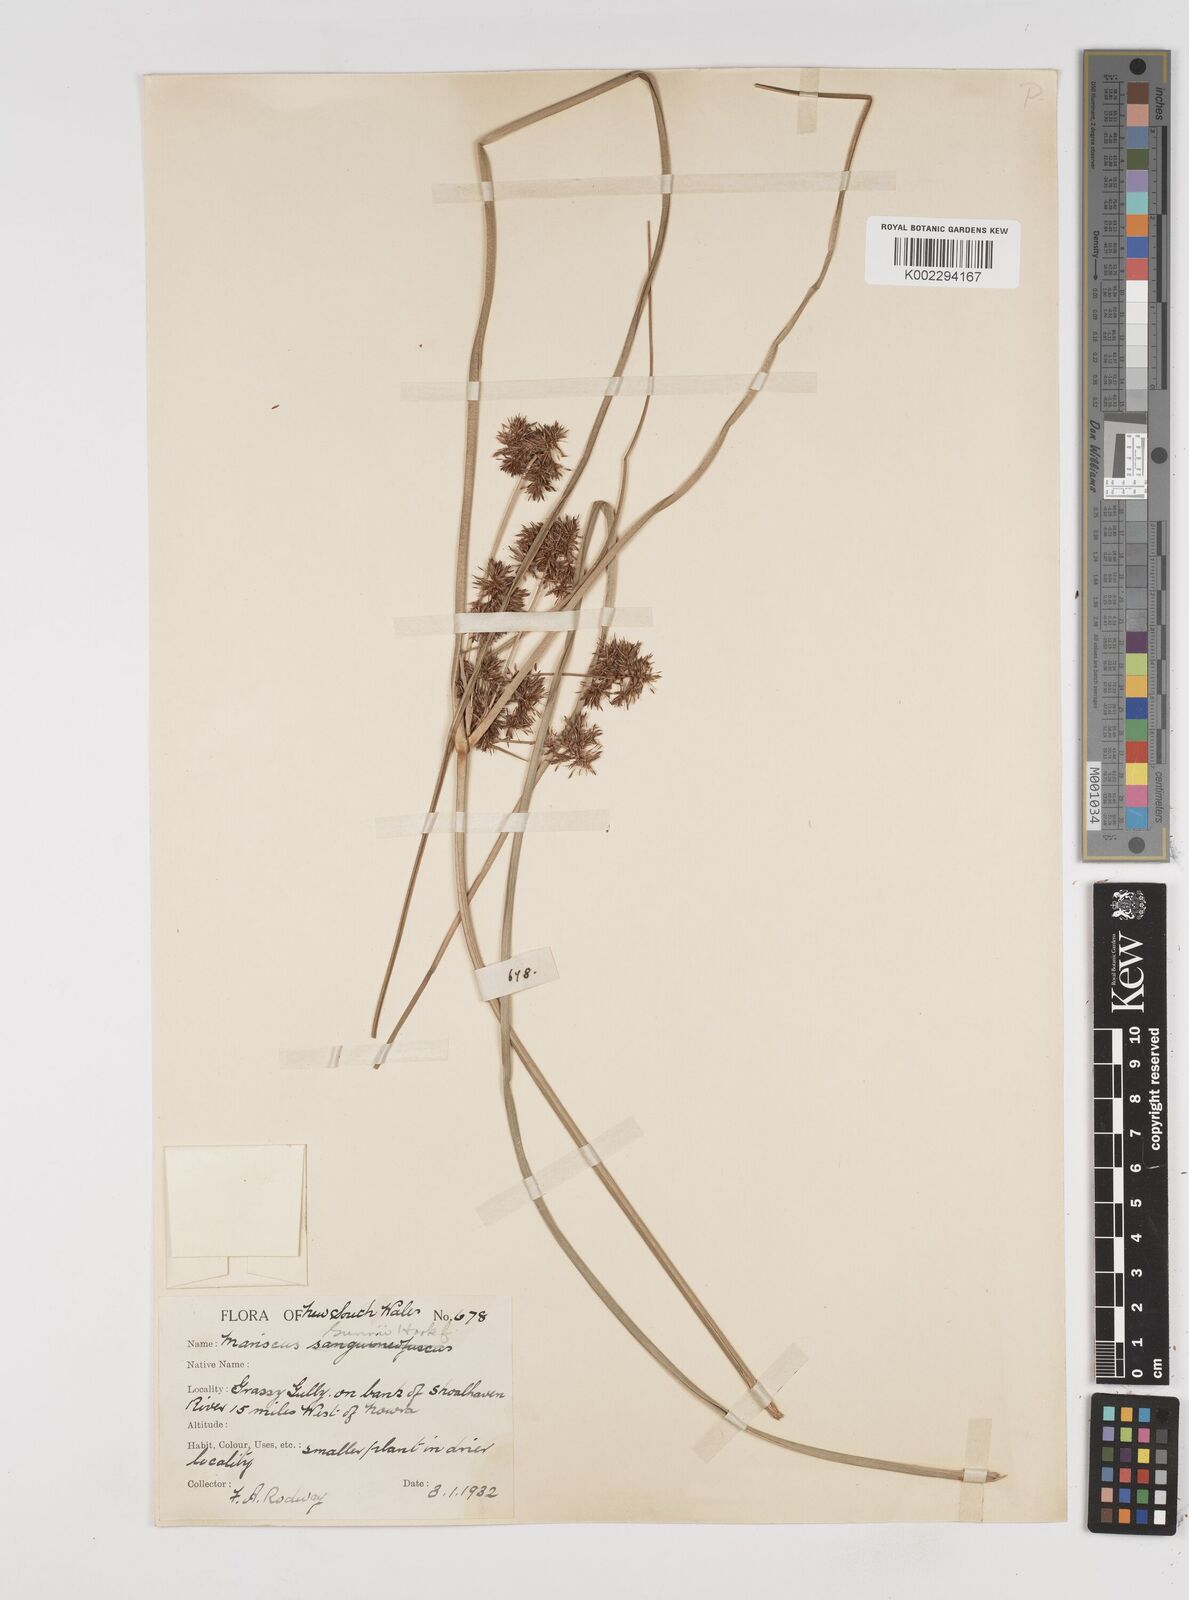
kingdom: Plantae
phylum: Tracheophyta
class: Liliopsida
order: Poales
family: Cyperaceae
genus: Cyperus
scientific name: Cyperus gunnii
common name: Flecked flat-sedge
